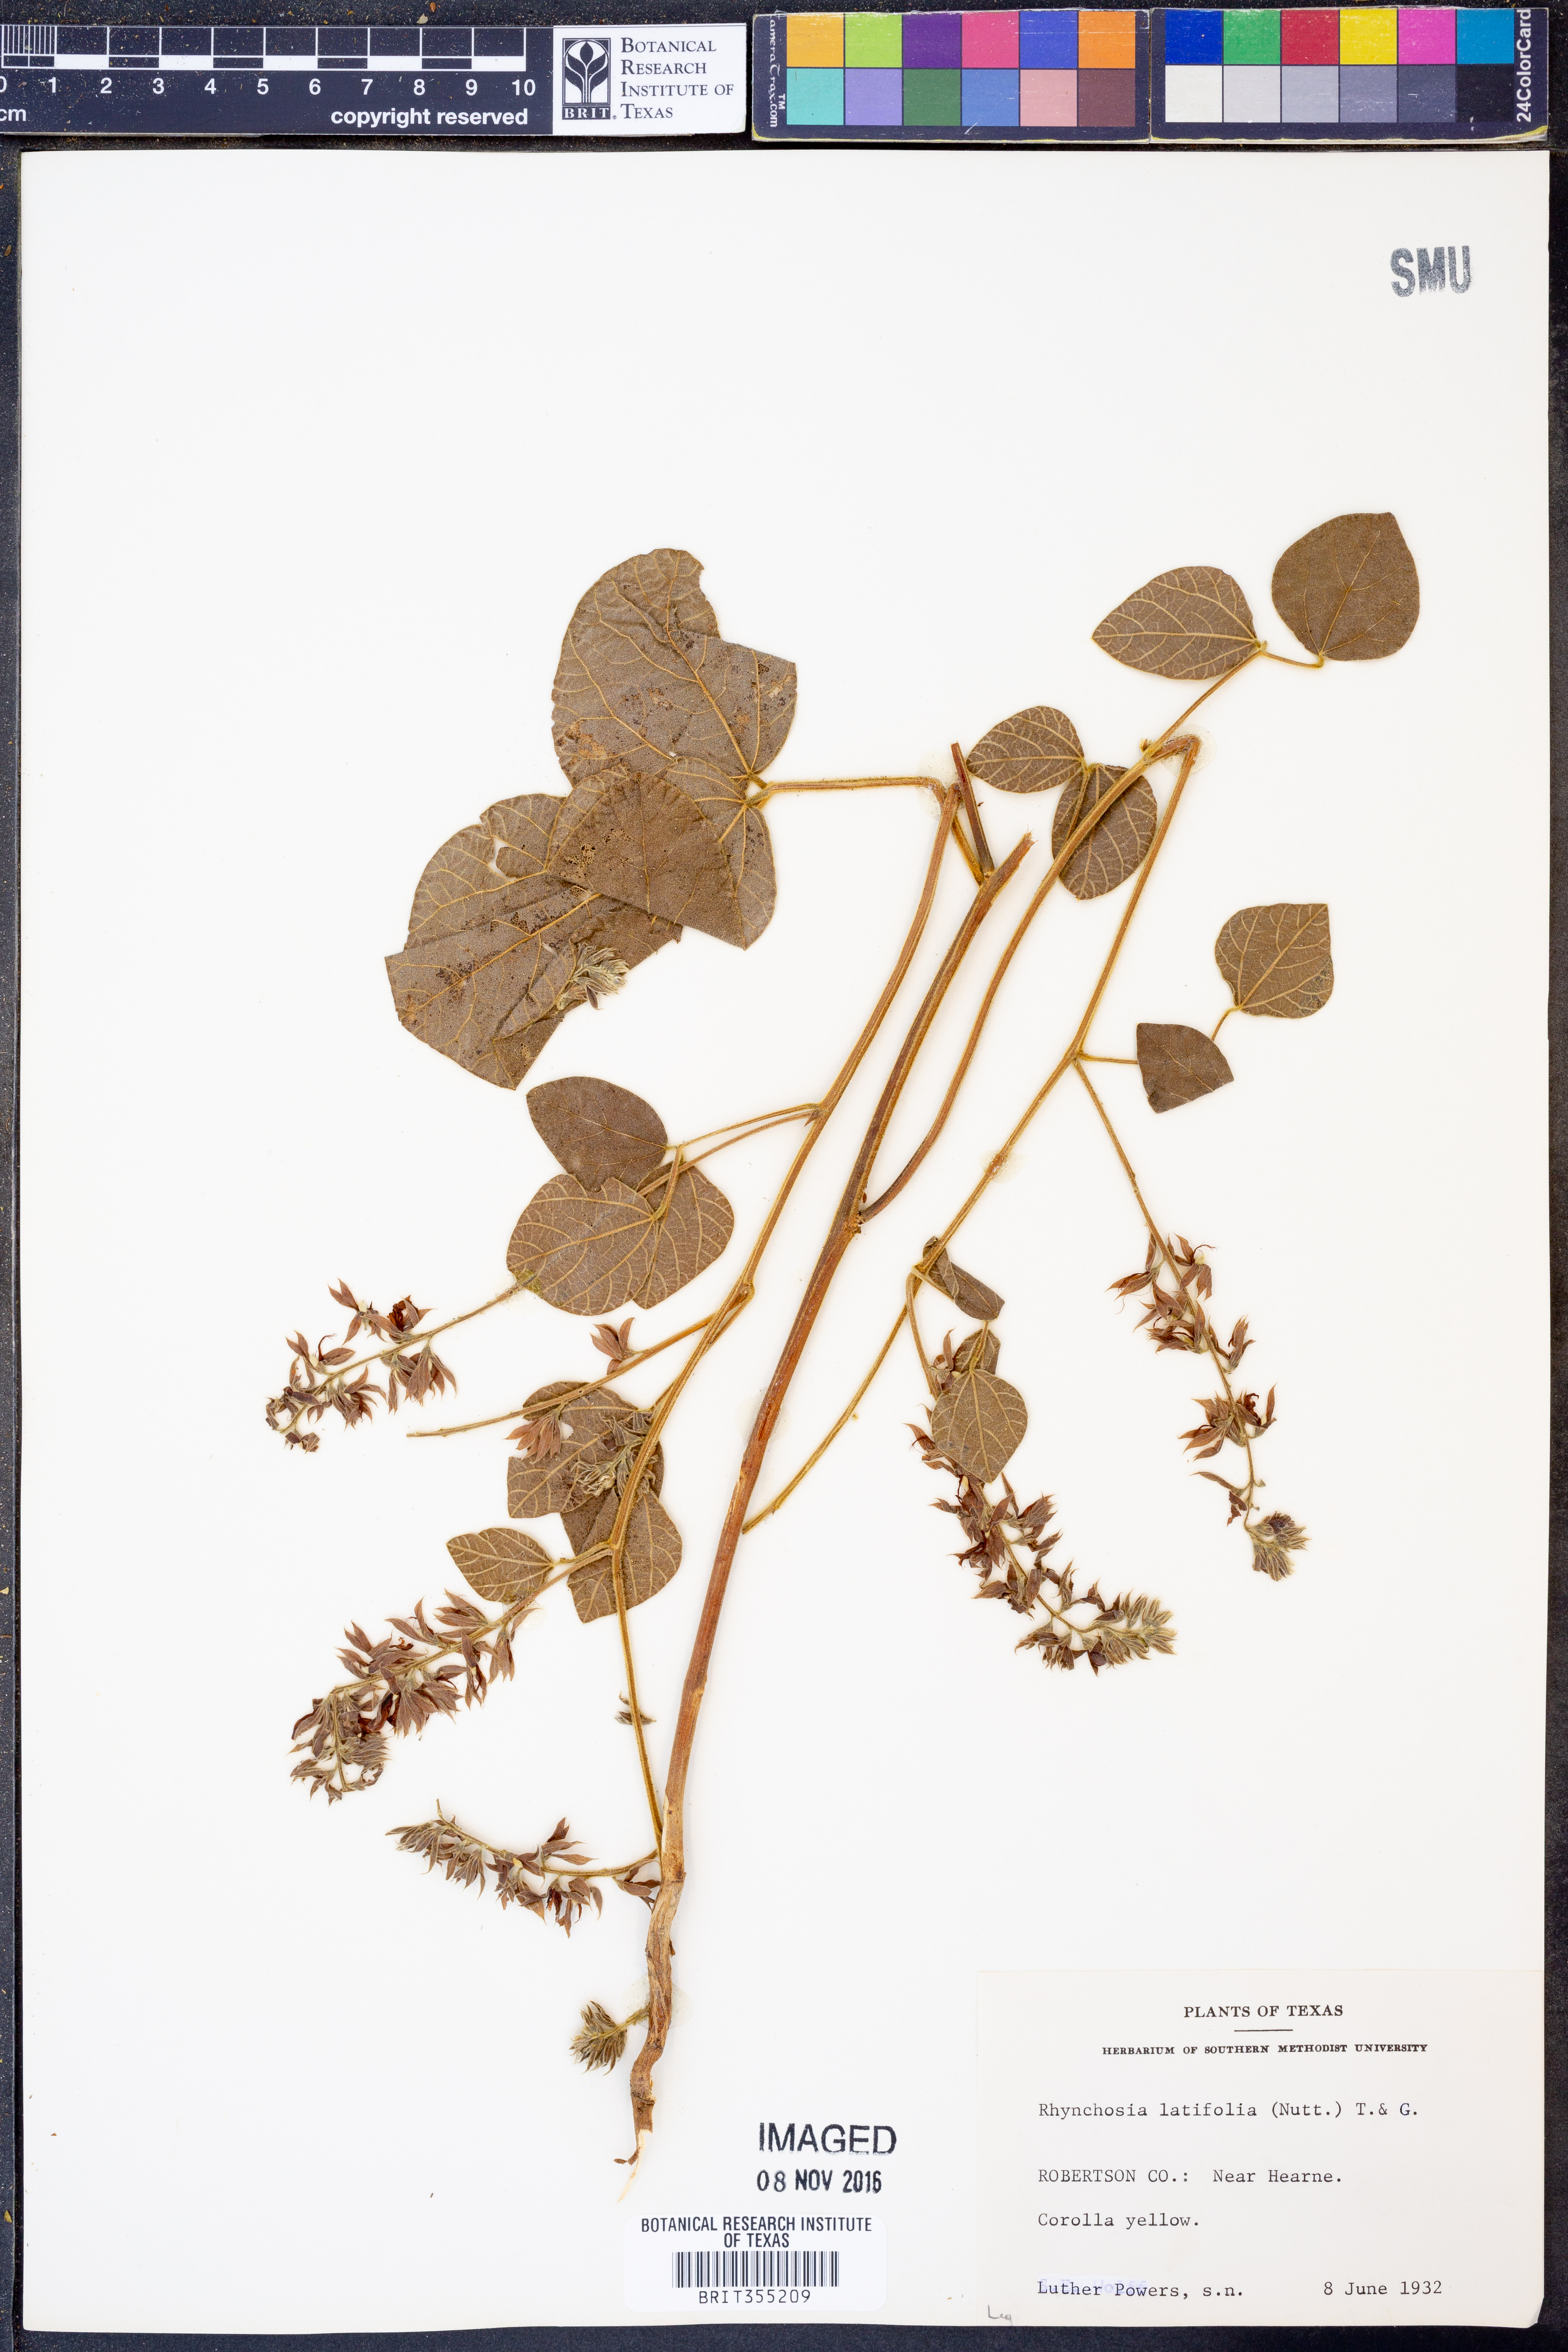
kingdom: Plantae
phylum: Tracheophyta
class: Magnoliopsida
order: Fabales
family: Fabaceae
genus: Rhynchosia
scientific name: Rhynchosia latifolia
